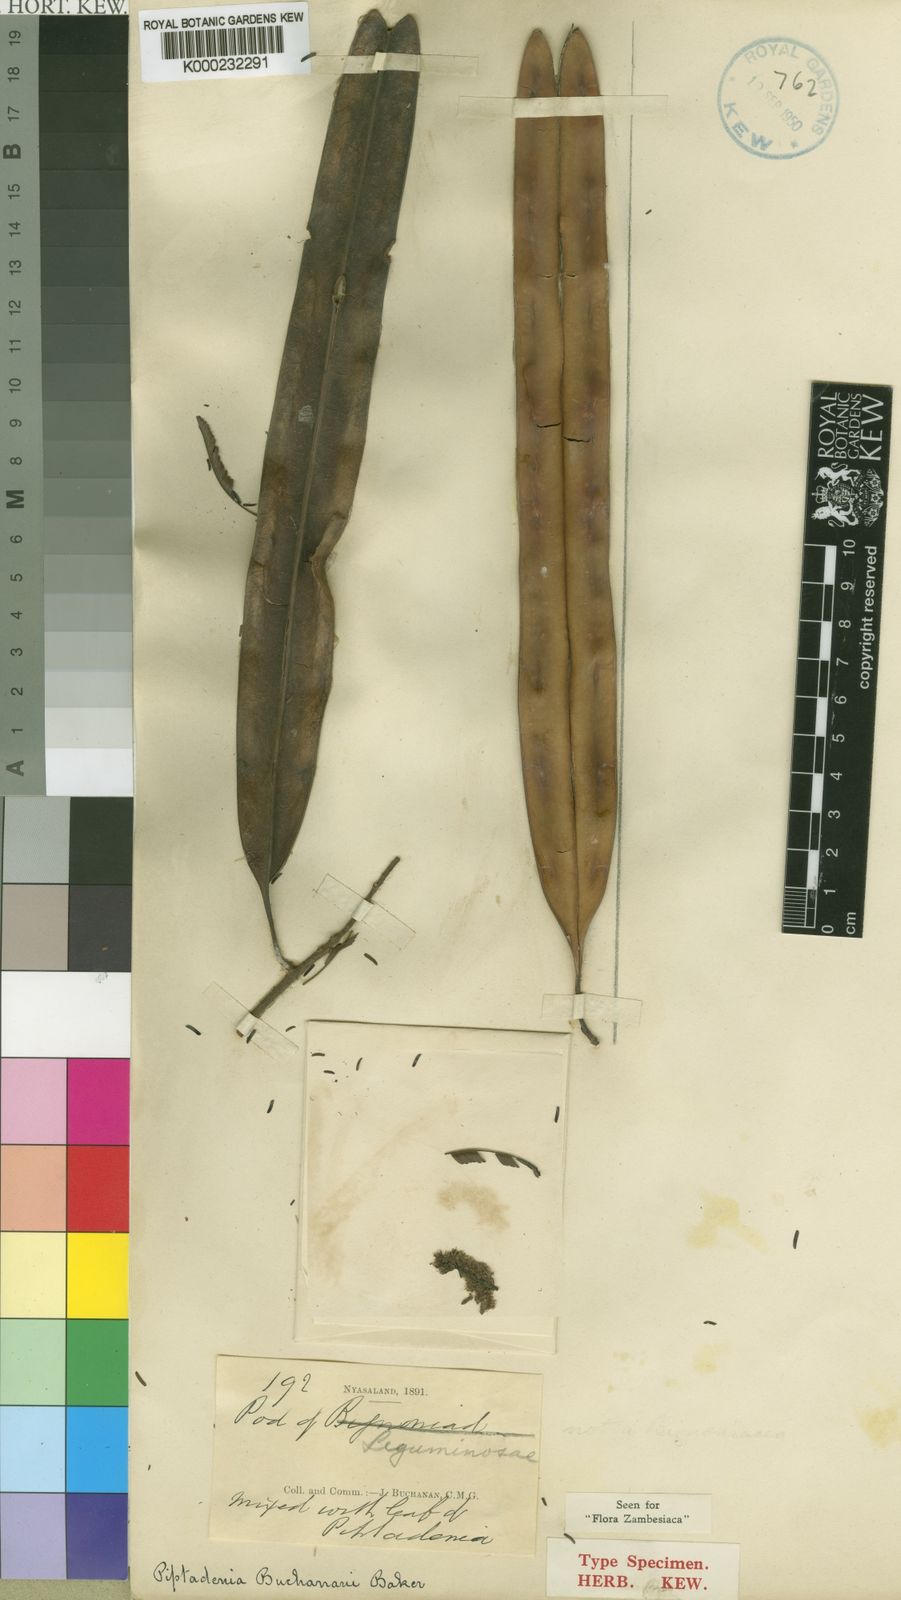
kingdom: Plantae
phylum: Tracheophyta
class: Magnoliopsida
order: Fabales
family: Fabaceae
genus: Newtonia
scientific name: Newtonia buchananii
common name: Forest newtonia
